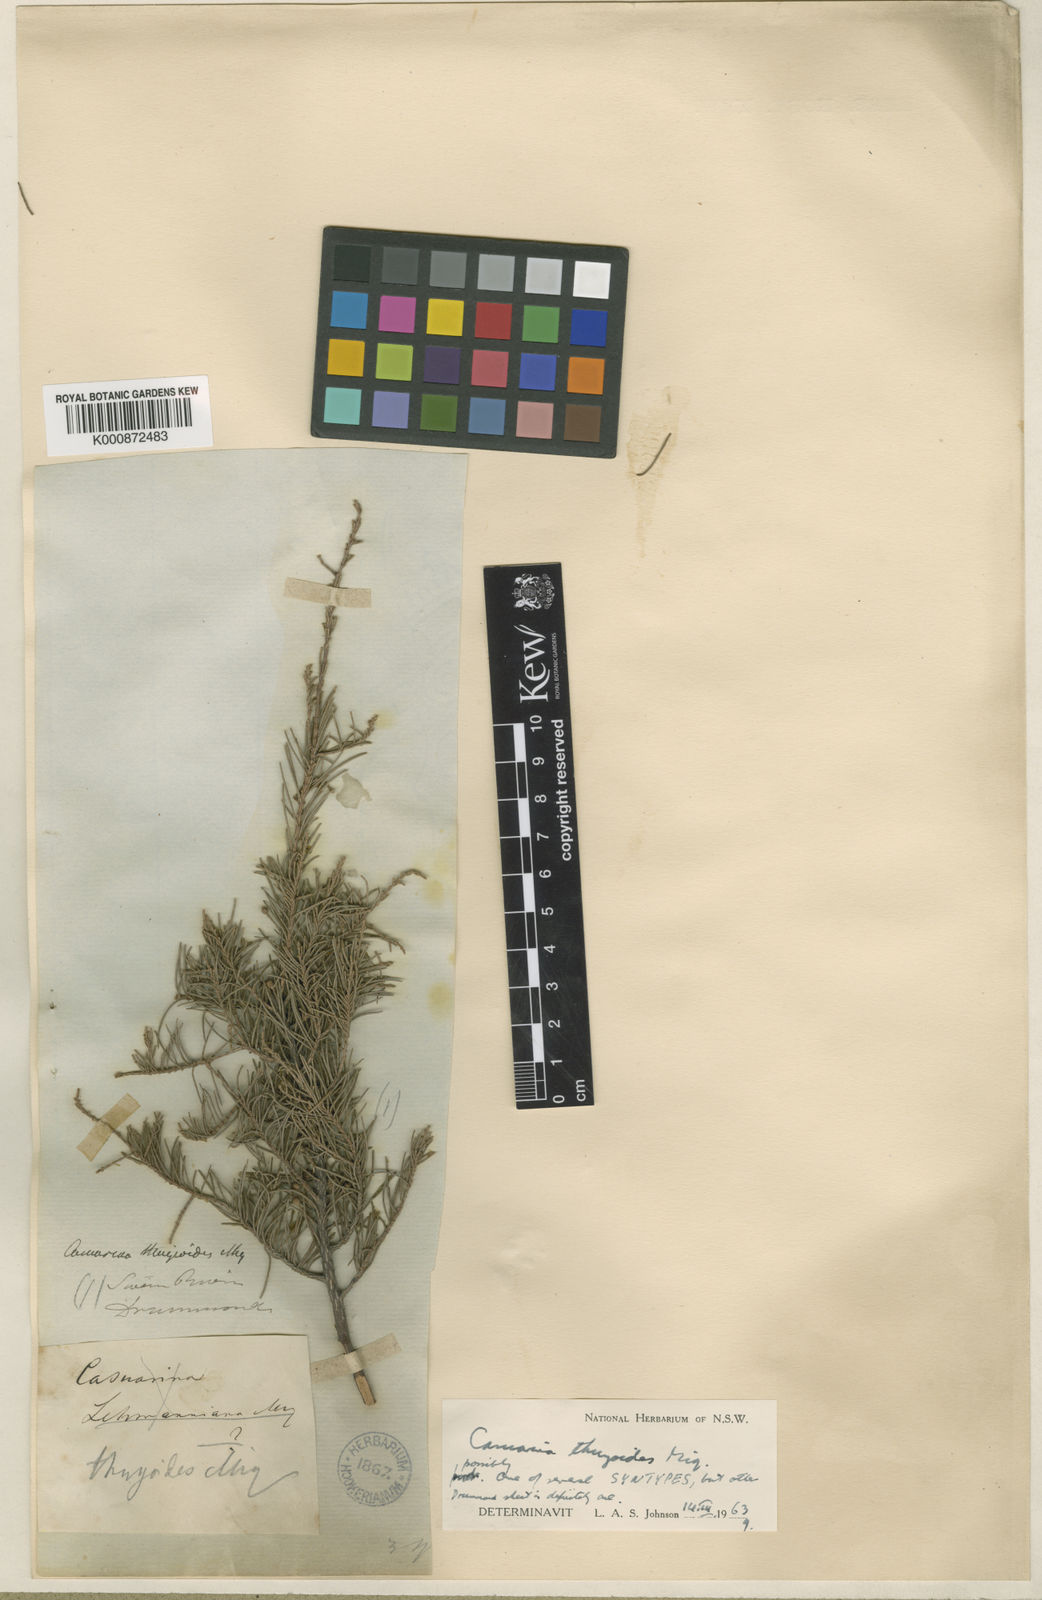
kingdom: Plantae
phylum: Tracheophyta
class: Magnoliopsida
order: Fagales
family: Casuarinaceae
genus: Allocasuarina
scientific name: Allocasuarina thuyoides
